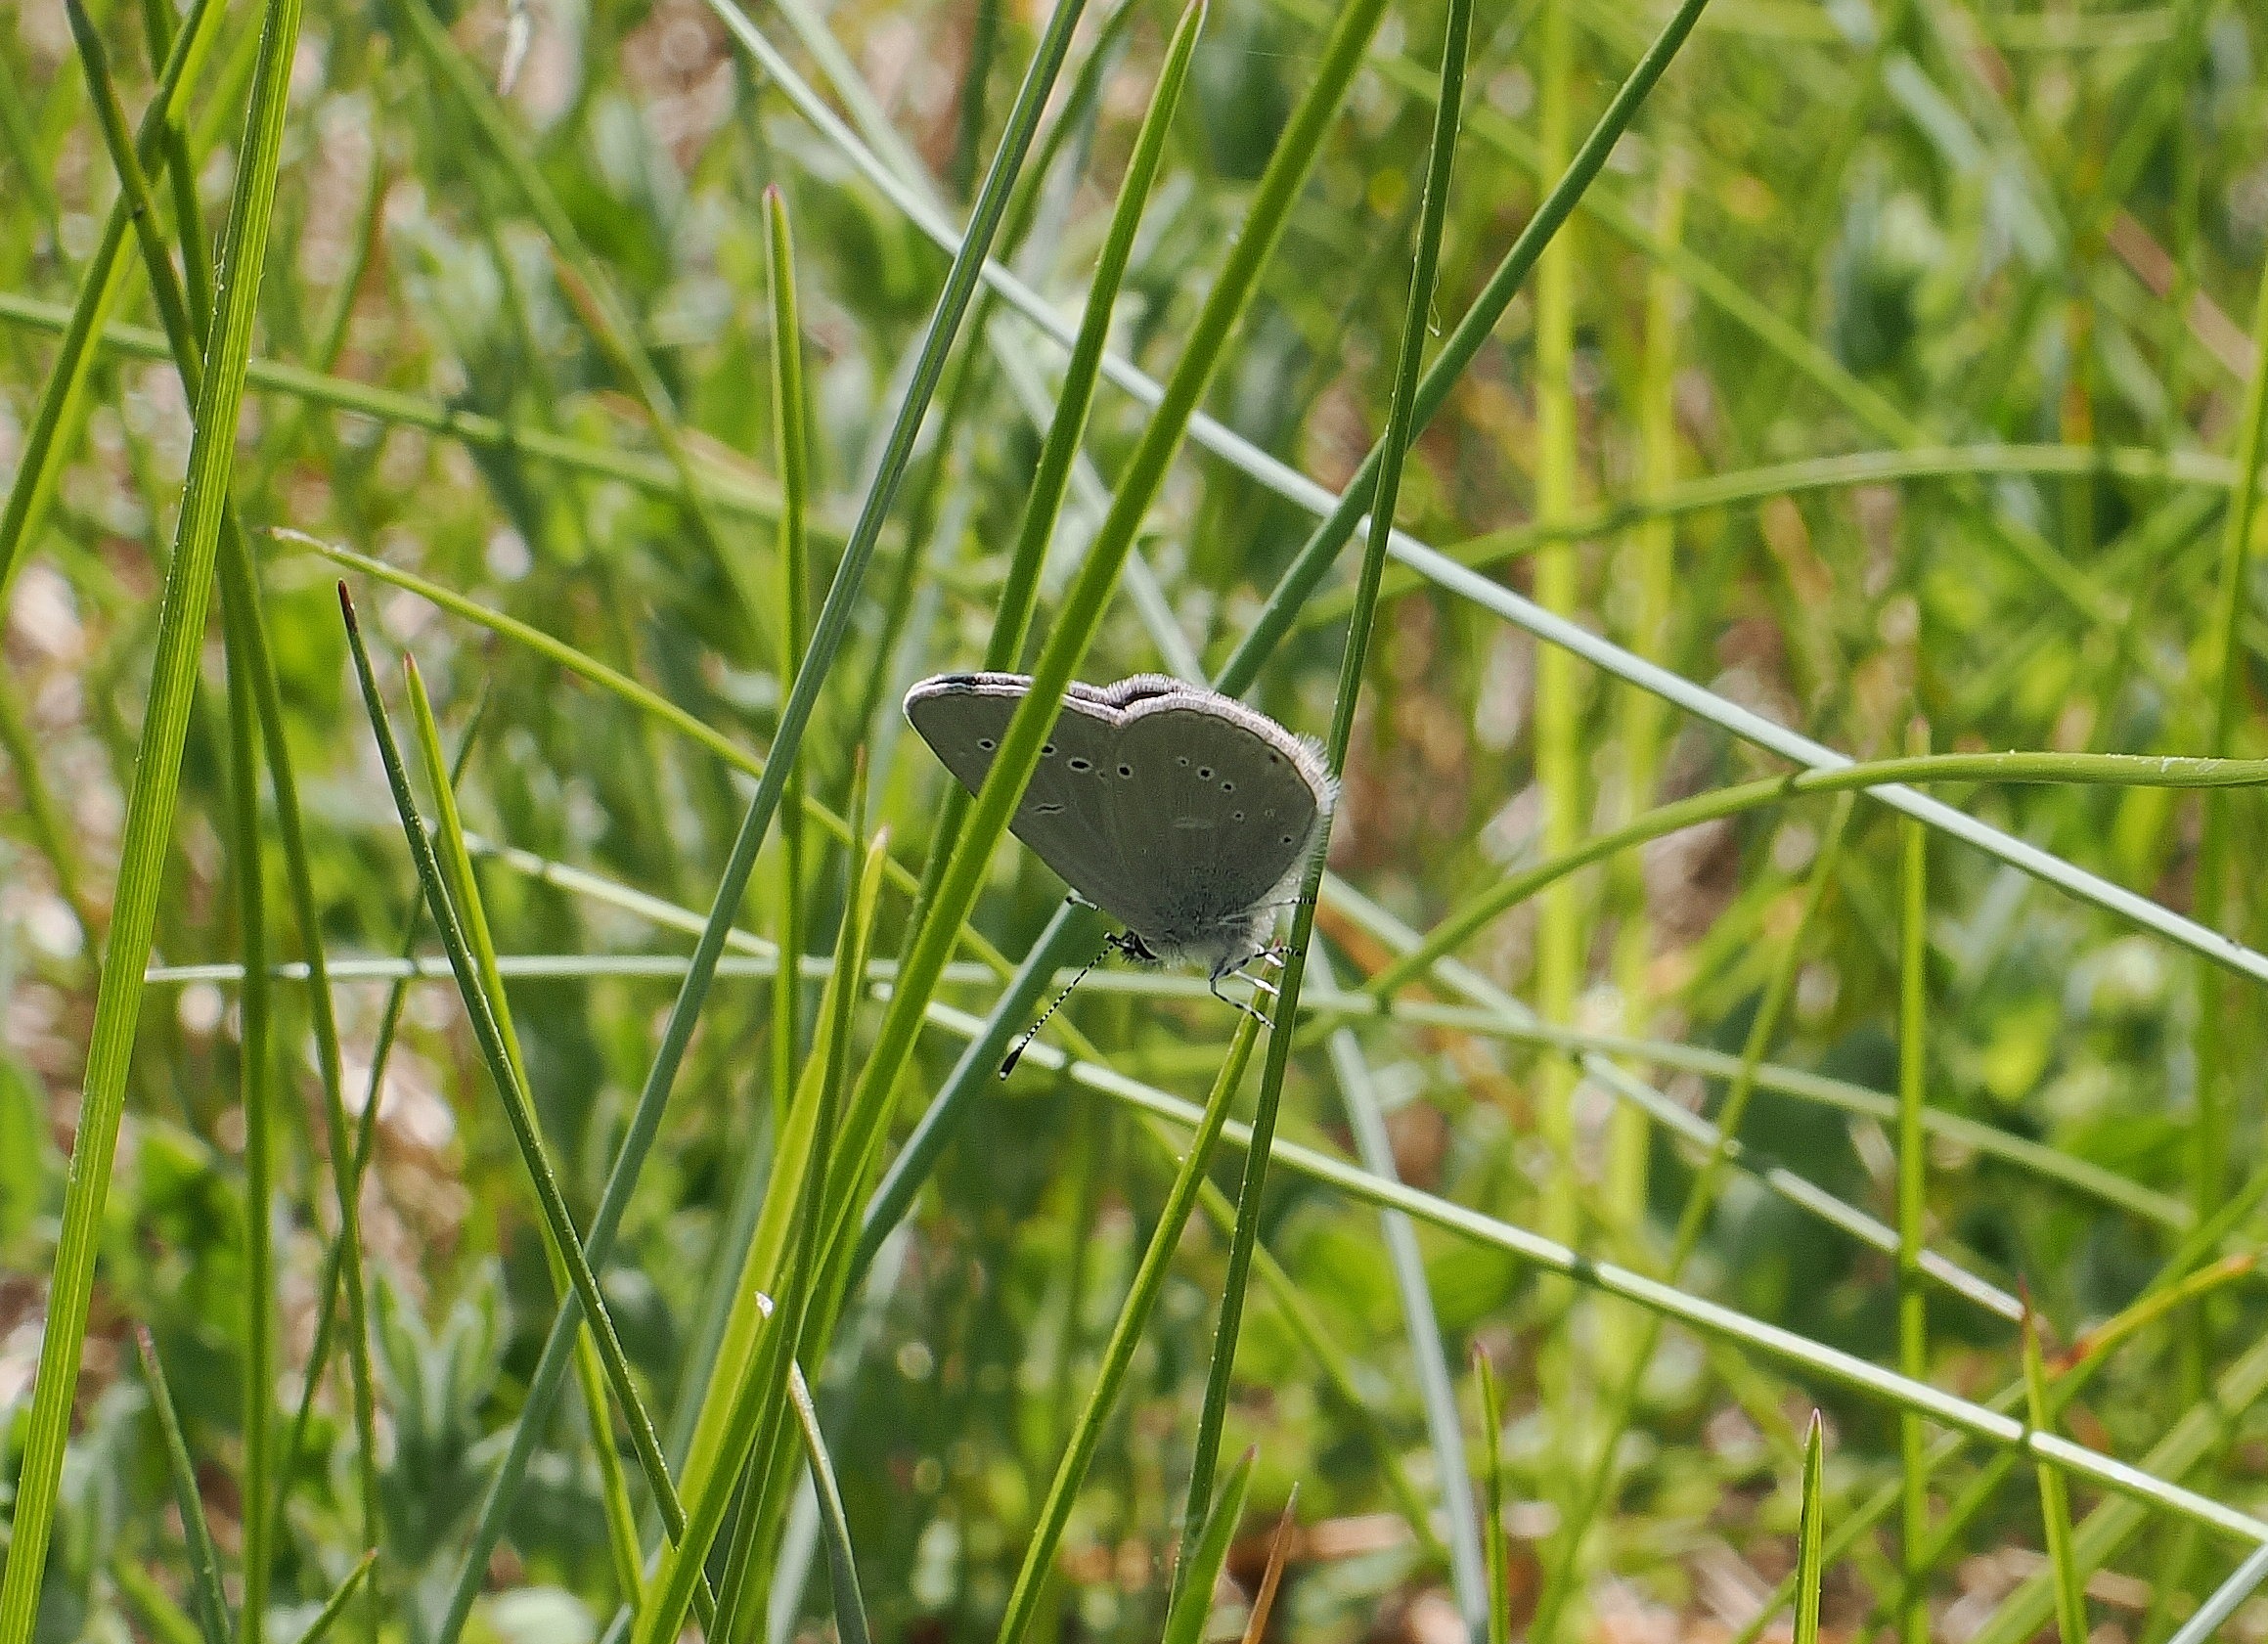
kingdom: Animalia
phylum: Arthropoda
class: Insecta
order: Lepidoptera
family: Lycaenidae
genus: Cupido
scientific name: Cupido minimus
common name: Dværgblåfugl
